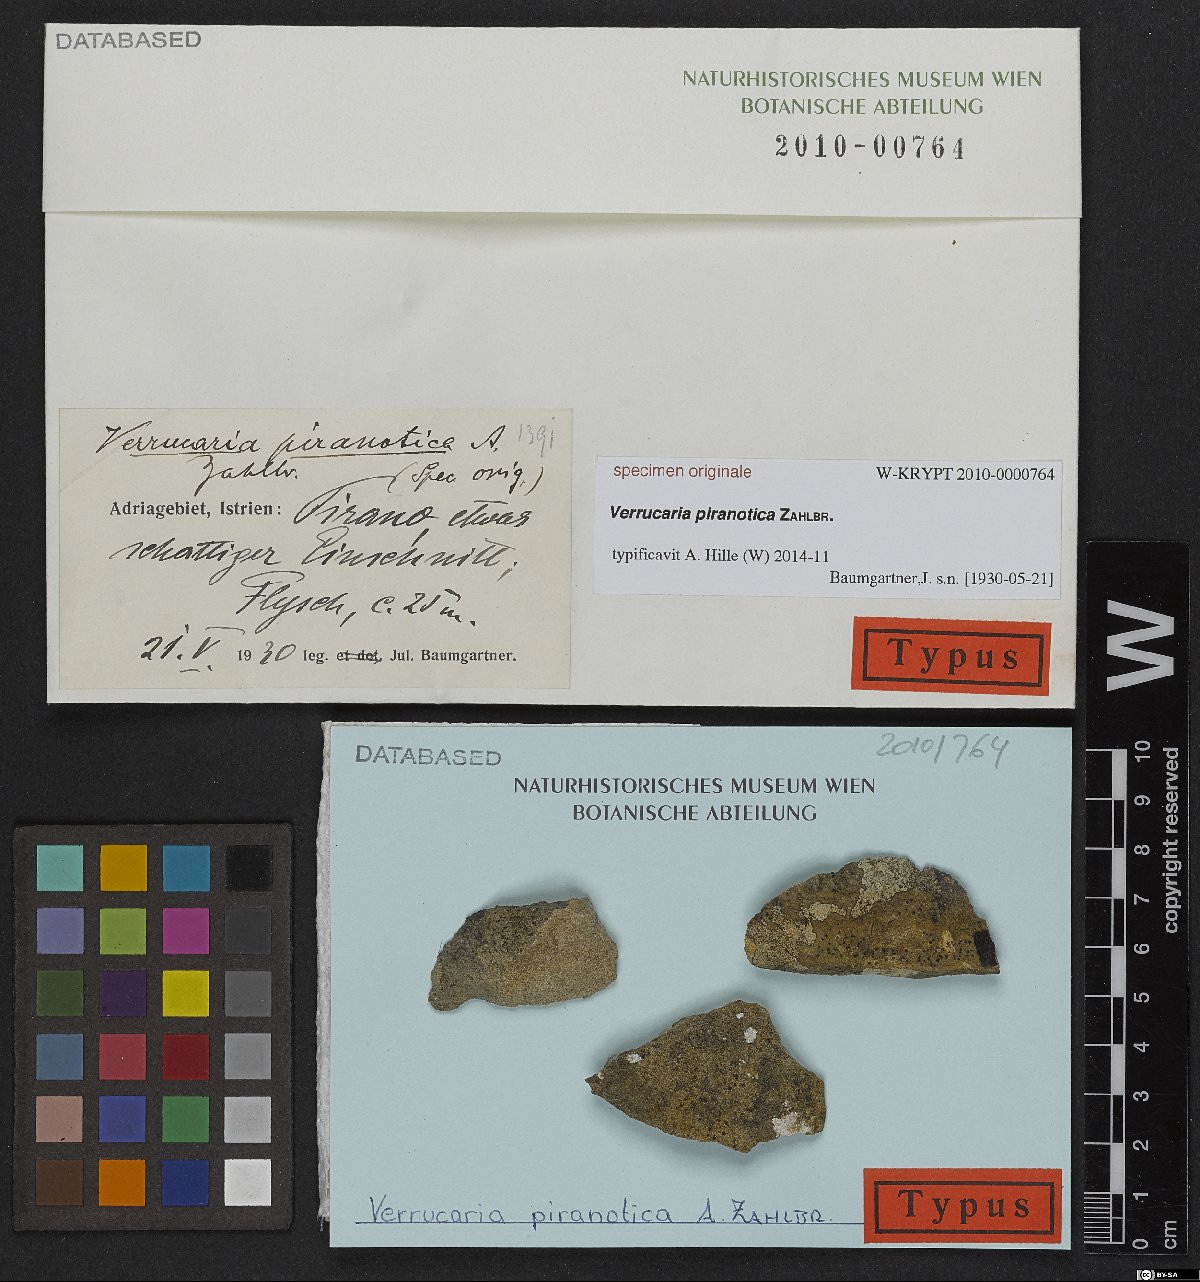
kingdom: Fungi
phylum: Ascomycota
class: Eurotiomycetes
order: Verrucariales
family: Verrucariaceae
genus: Verrucaria
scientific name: Verrucaria
